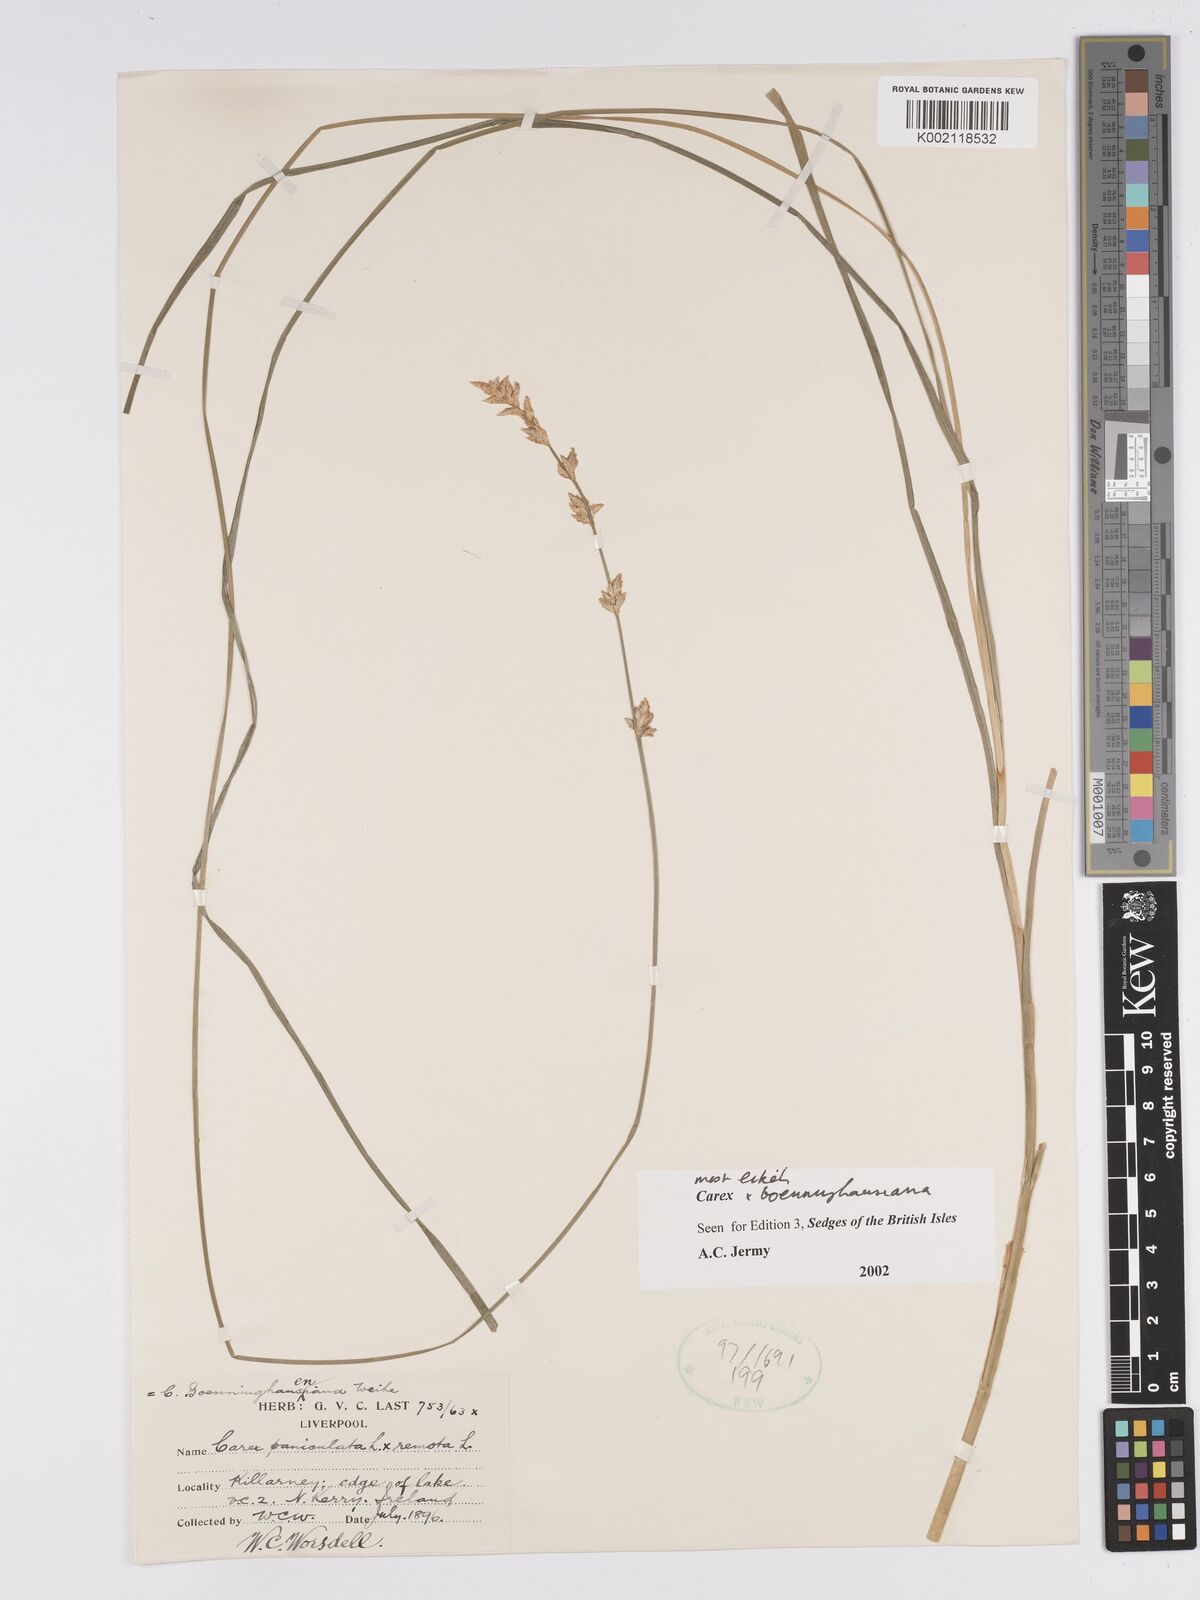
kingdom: Plantae
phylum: Tracheophyta
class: Liliopsida
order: Poales
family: Cyperaceae
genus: Carex
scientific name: Carex boenninghausiana
